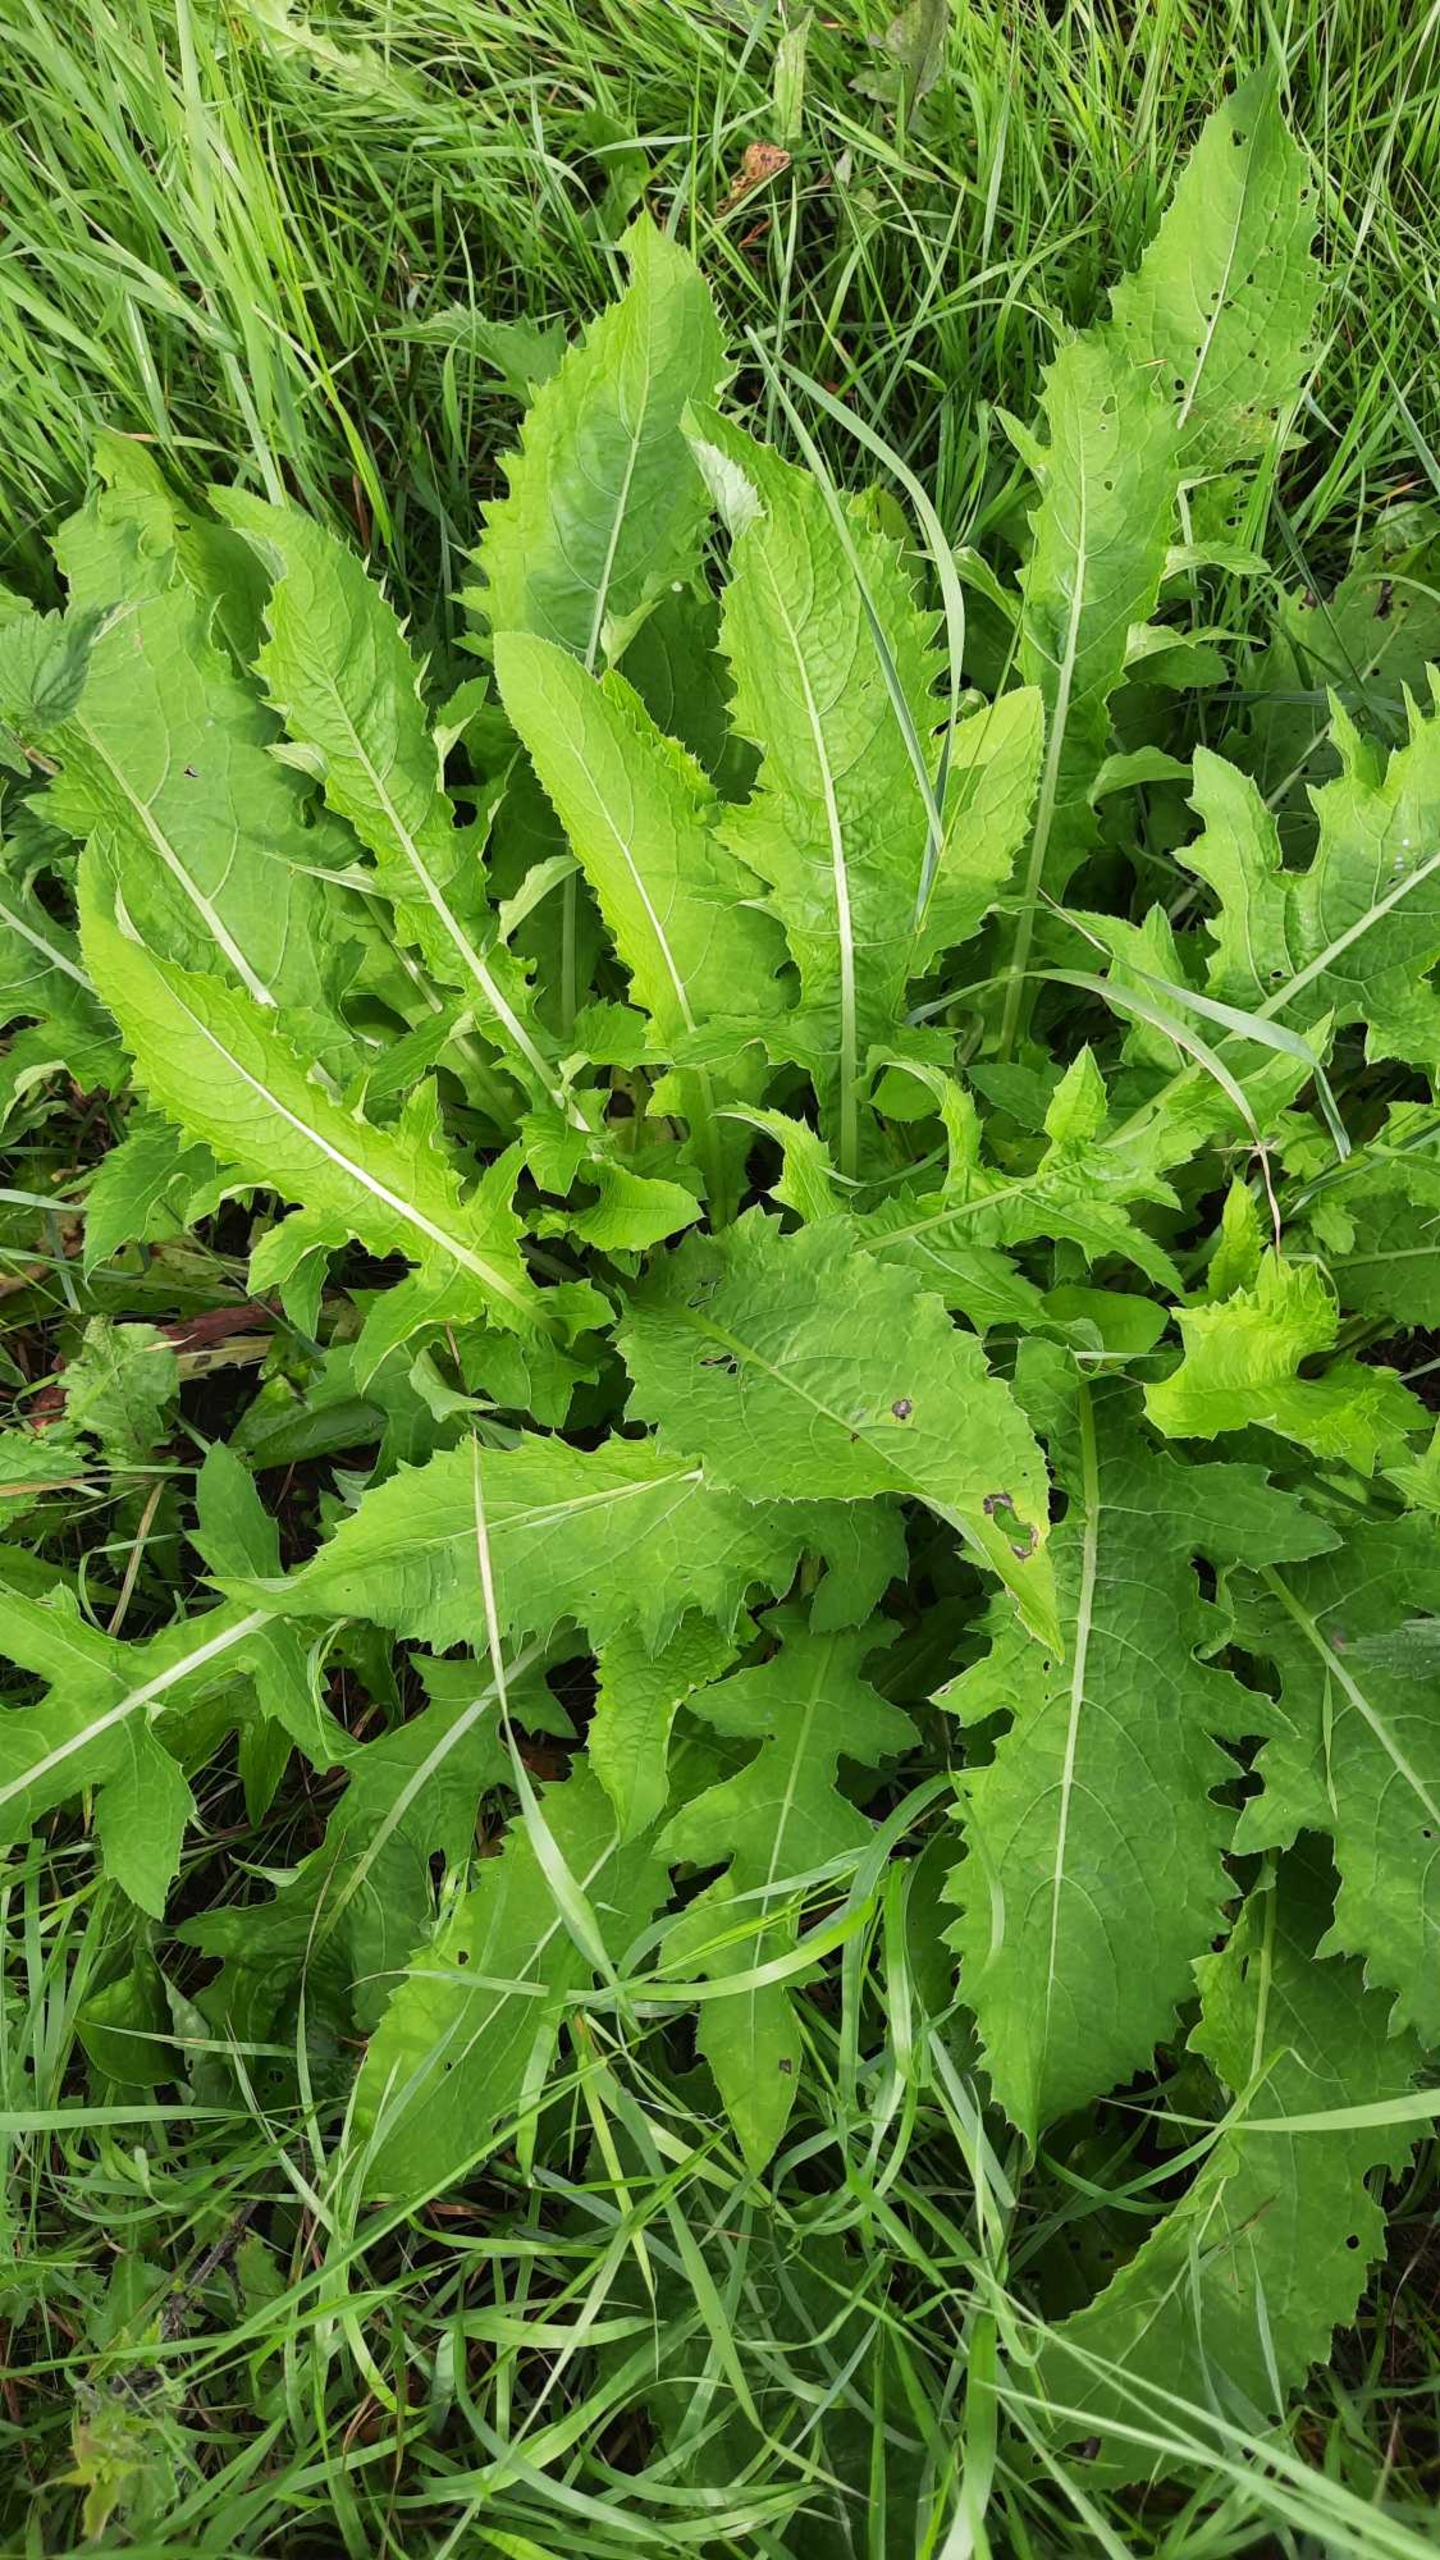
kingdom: Plantae
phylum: Tracheophyta
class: Magnoliopsida
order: Asterales
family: Asteraceae
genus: Cirsium
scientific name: Cirsium oleraceum
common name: Kål-tidsel
